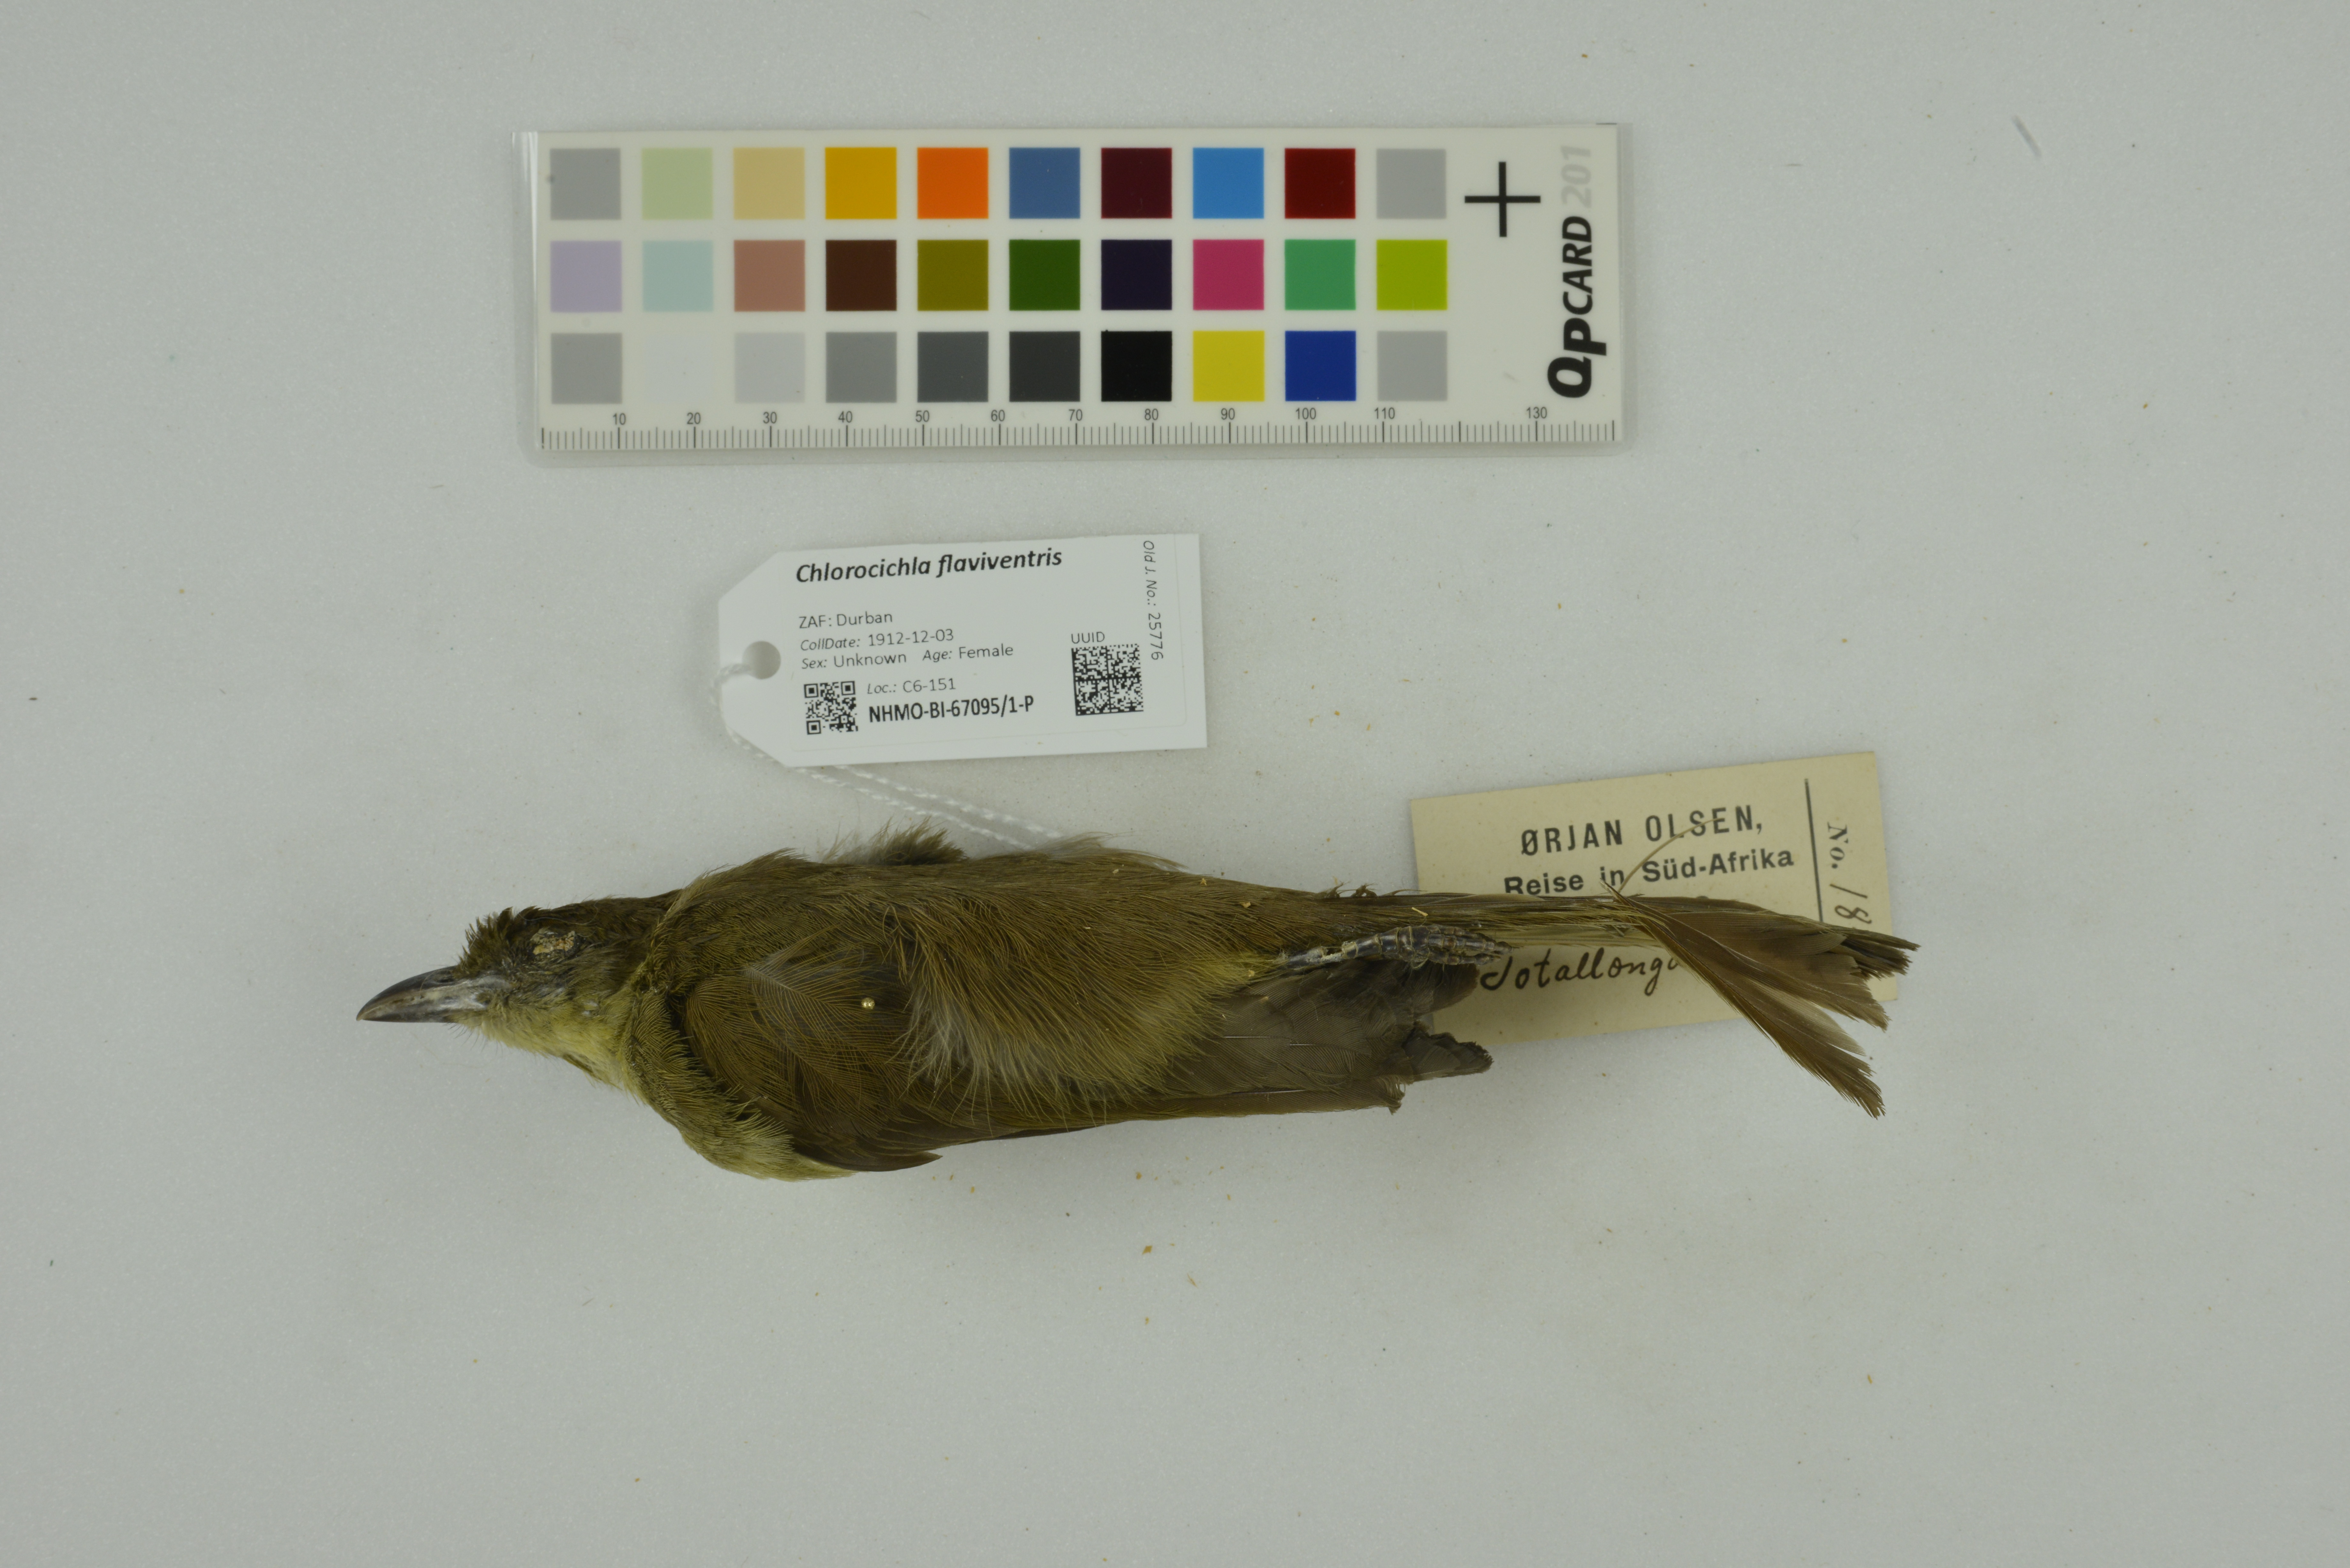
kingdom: Animalia
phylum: Chordata
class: Aves
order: Passeriformes
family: Pycnonotidae
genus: Chlorocichla
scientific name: Chlorocichla flaviventris
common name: Yellow-bellied greenbul
